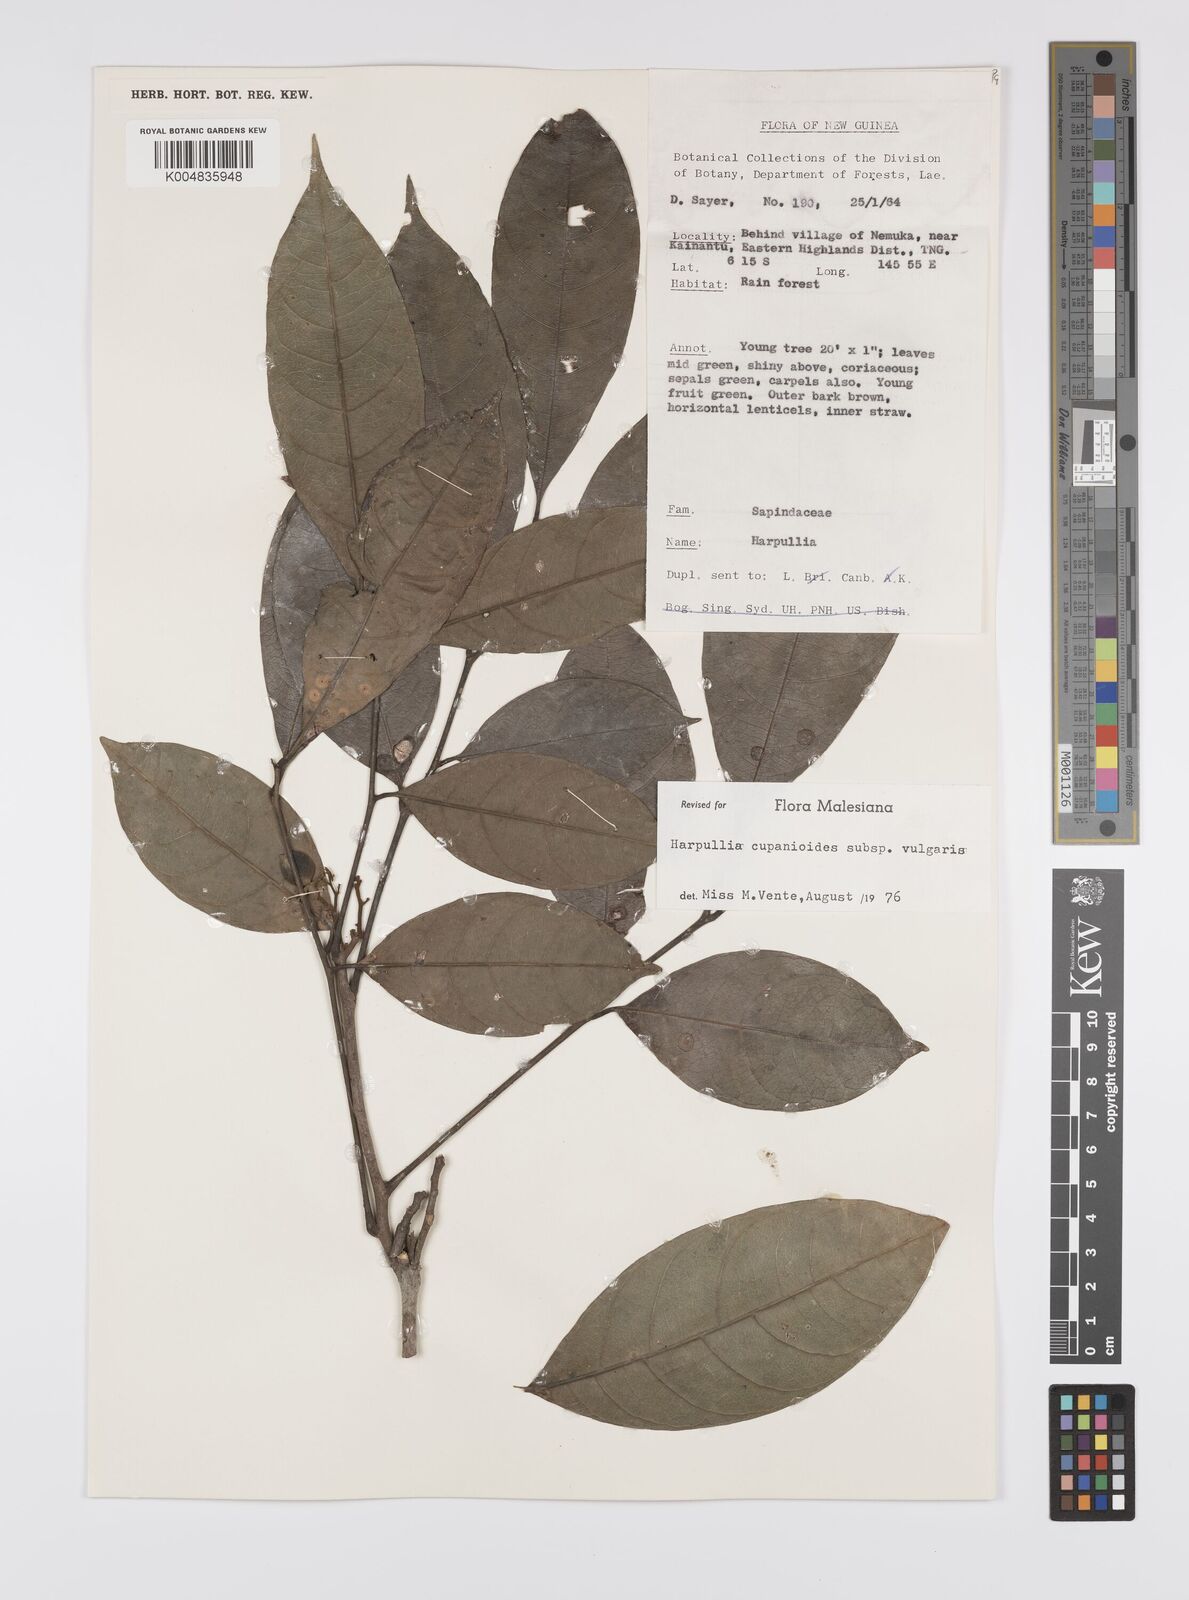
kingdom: Plantae
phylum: Tracheophyta
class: Magnoliopsida
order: Sapindales
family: Sapindaceae
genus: Harpullia
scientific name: Harpullia cupanioides
